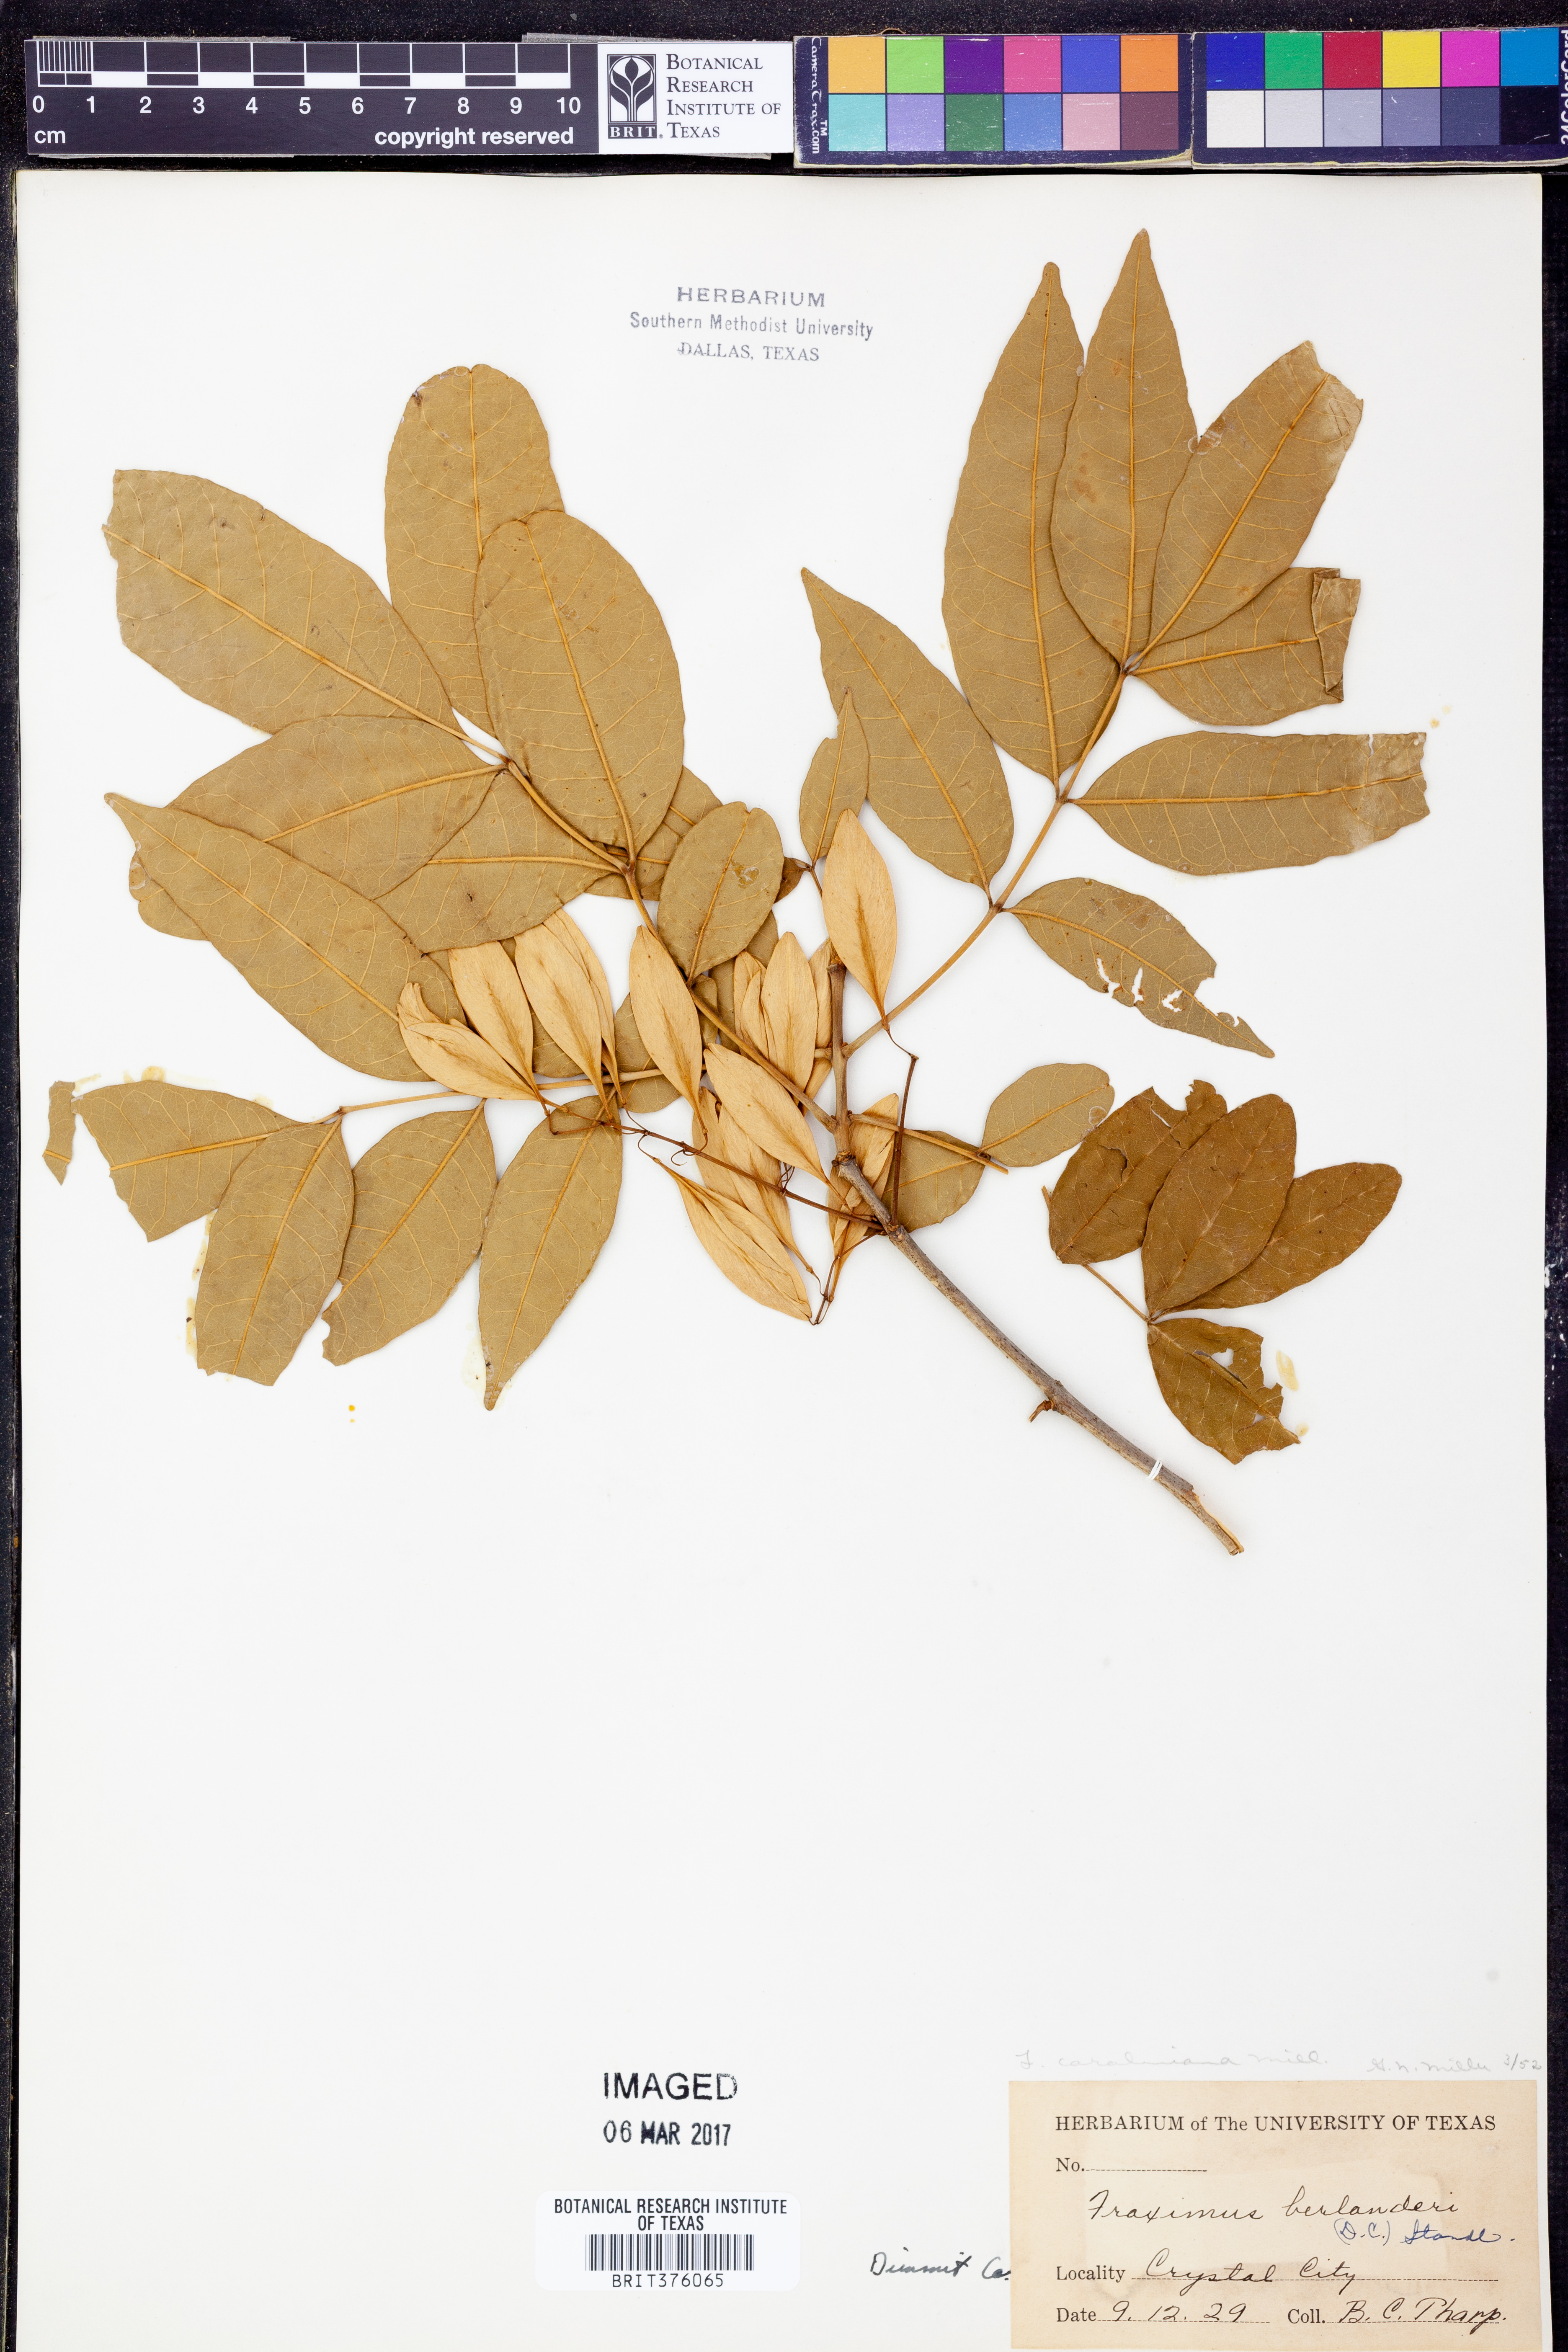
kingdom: Plantae
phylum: Tracheophyta
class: Magnoliopsida
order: Lamiales
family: Oleaceae
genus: Fraxinus
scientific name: Fraxinus caroliniana
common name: Carolina ash
